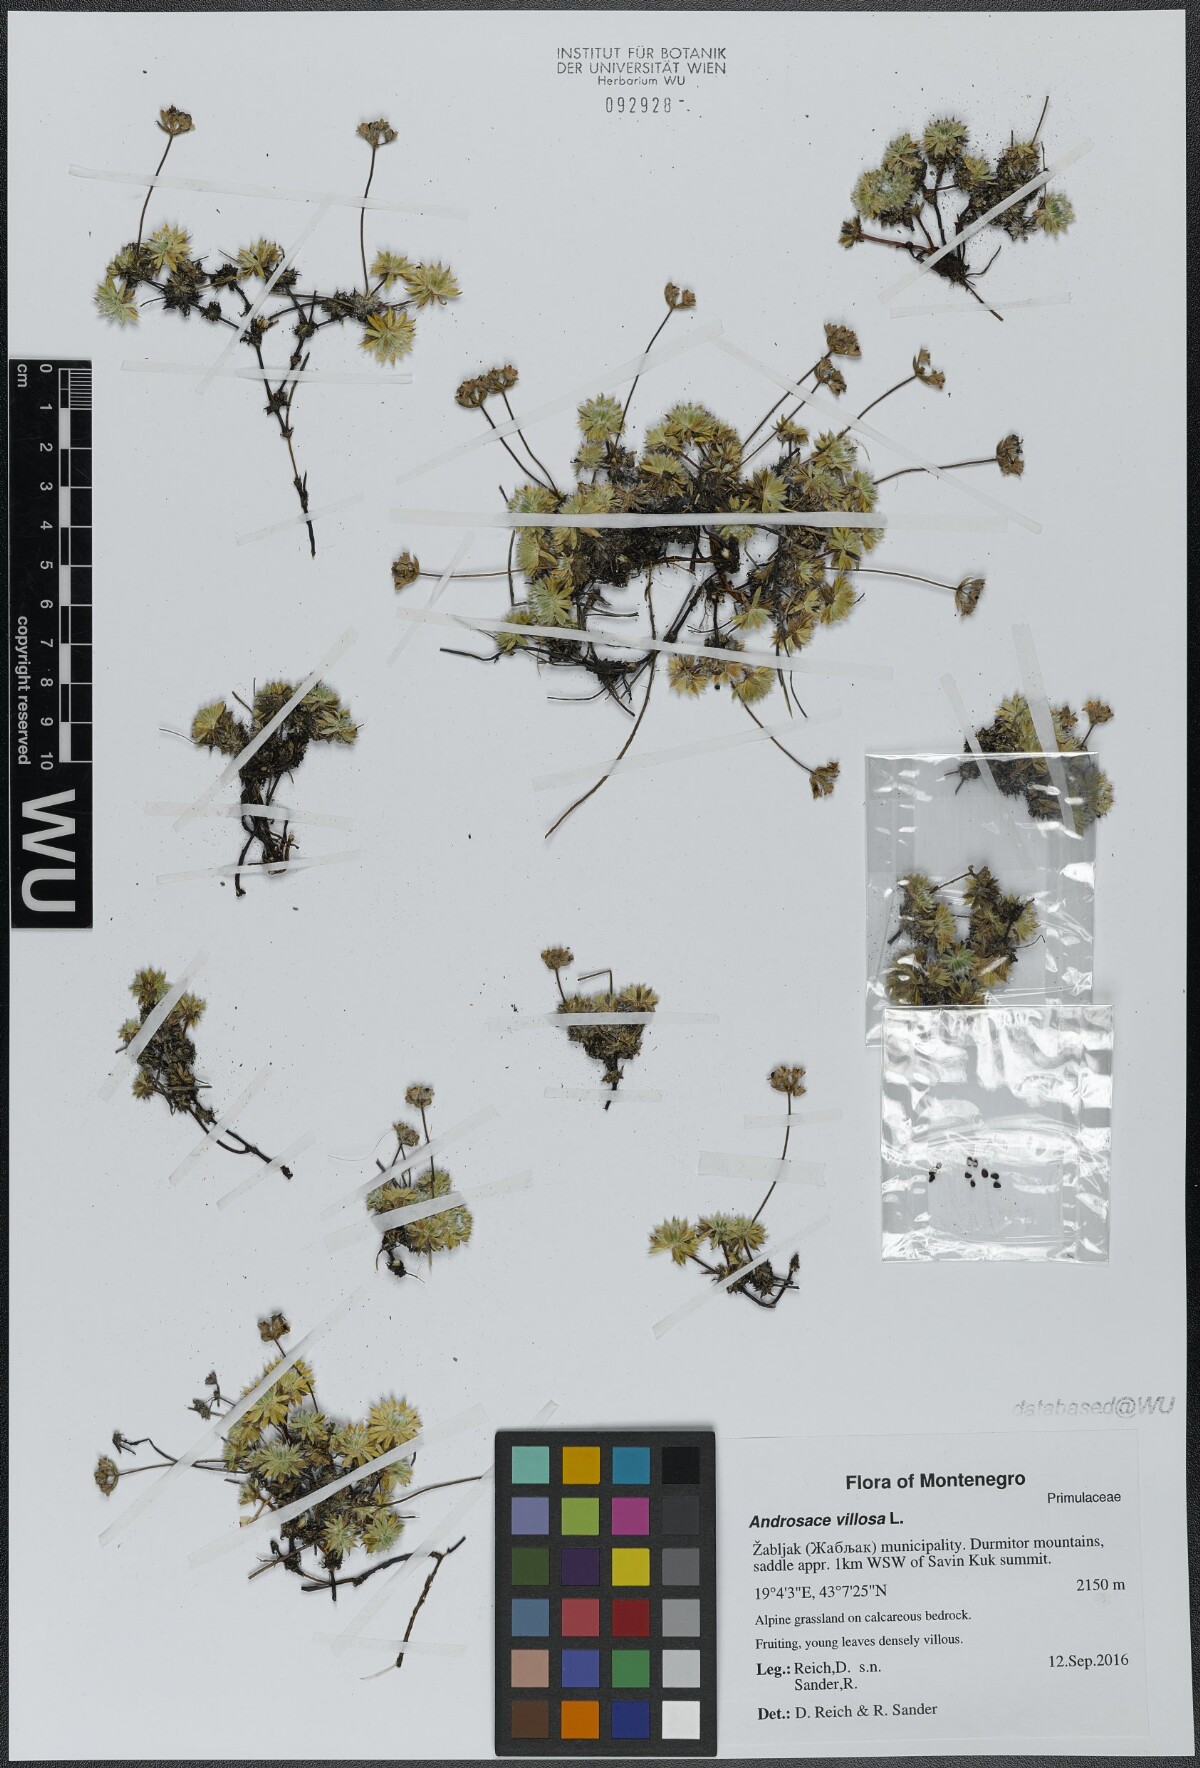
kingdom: Plantae
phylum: Tracheophyta
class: Magnoliopsida
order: Ericales
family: Primulaceae
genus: Androsace
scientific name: Androsace villosa
